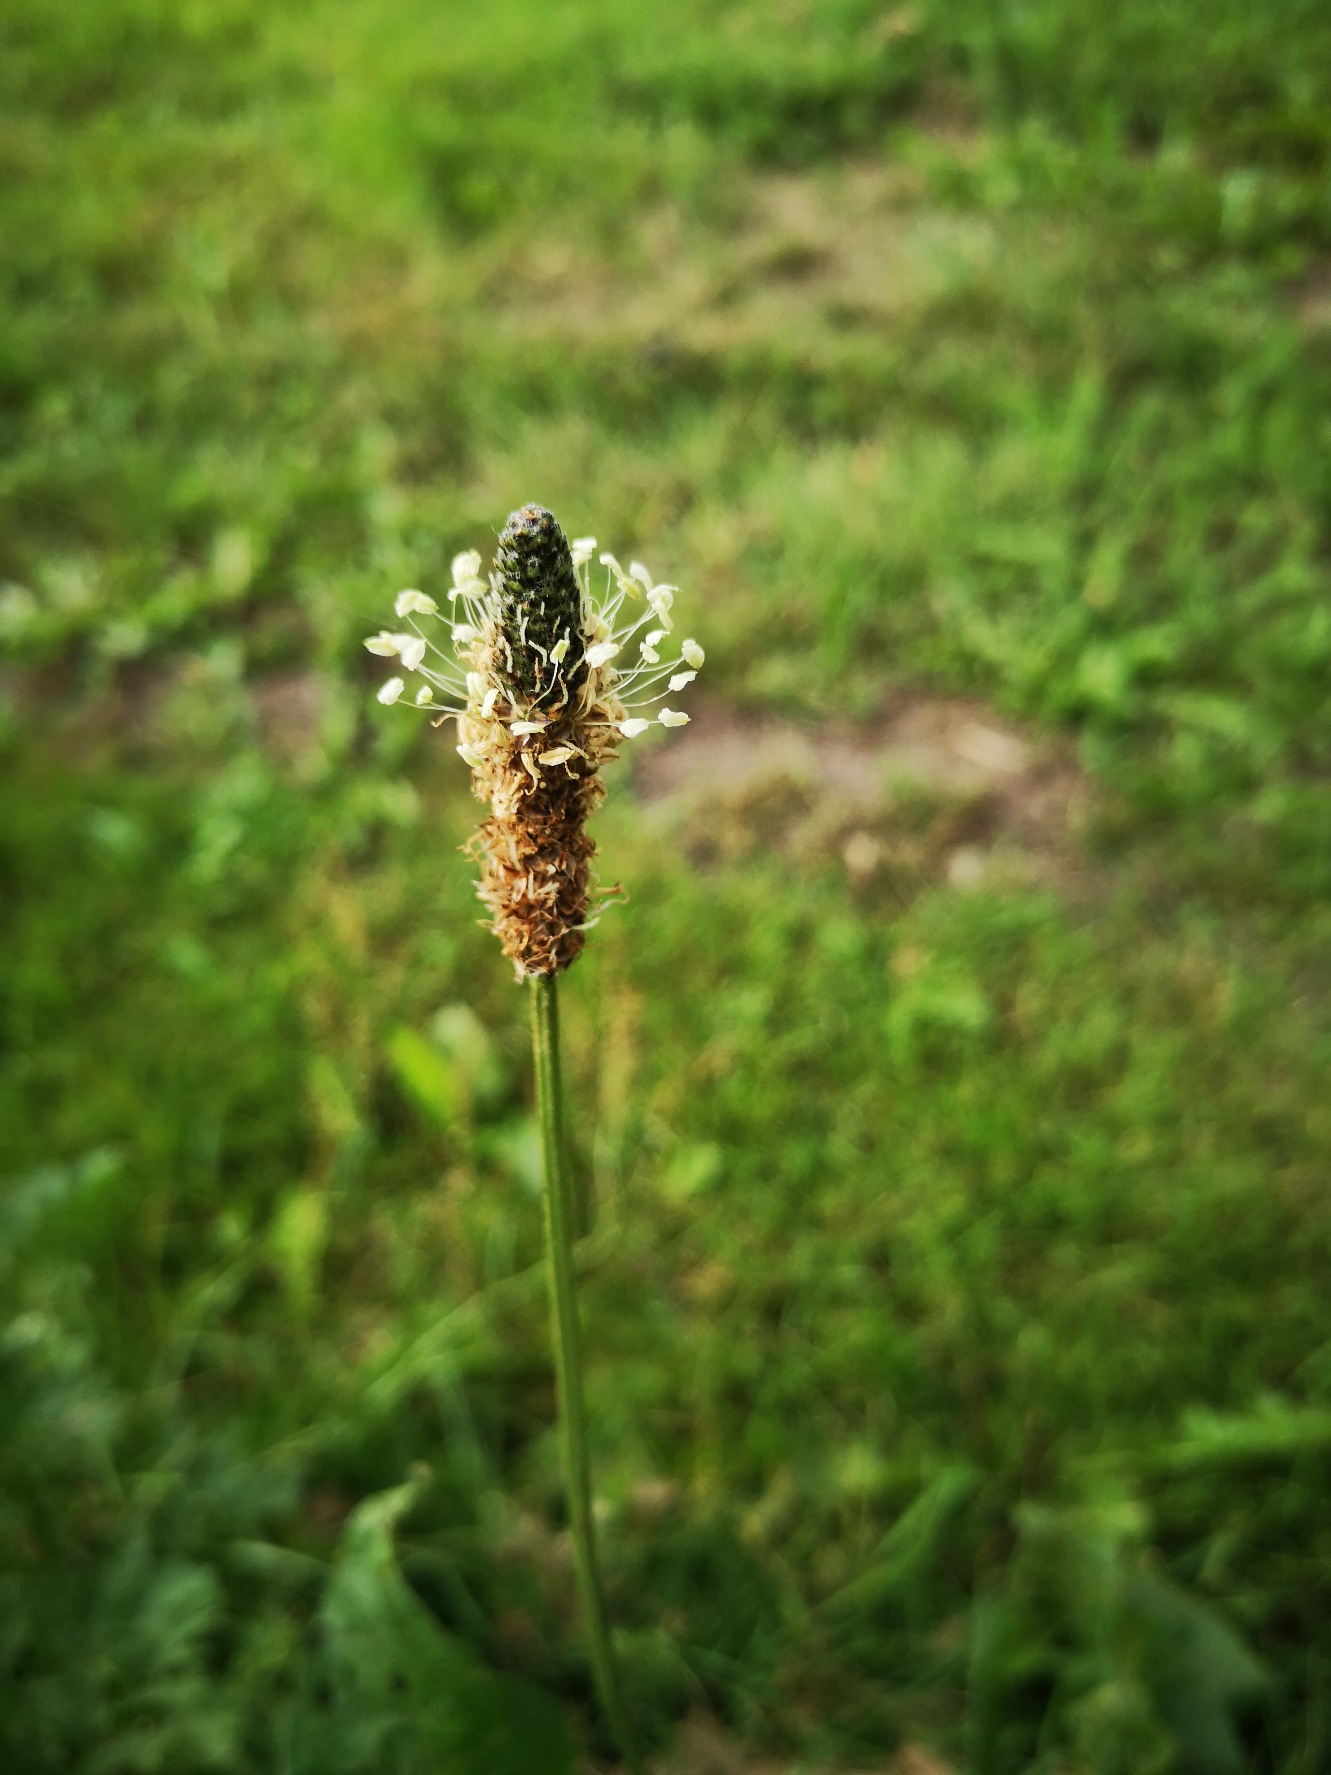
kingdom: Plantae
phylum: Tracheophyta
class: Magnoliopsida
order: Lamiales
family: Plantaginaceae
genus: Plantago
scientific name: Plantago lanceolata
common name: Lancet-vejbred
